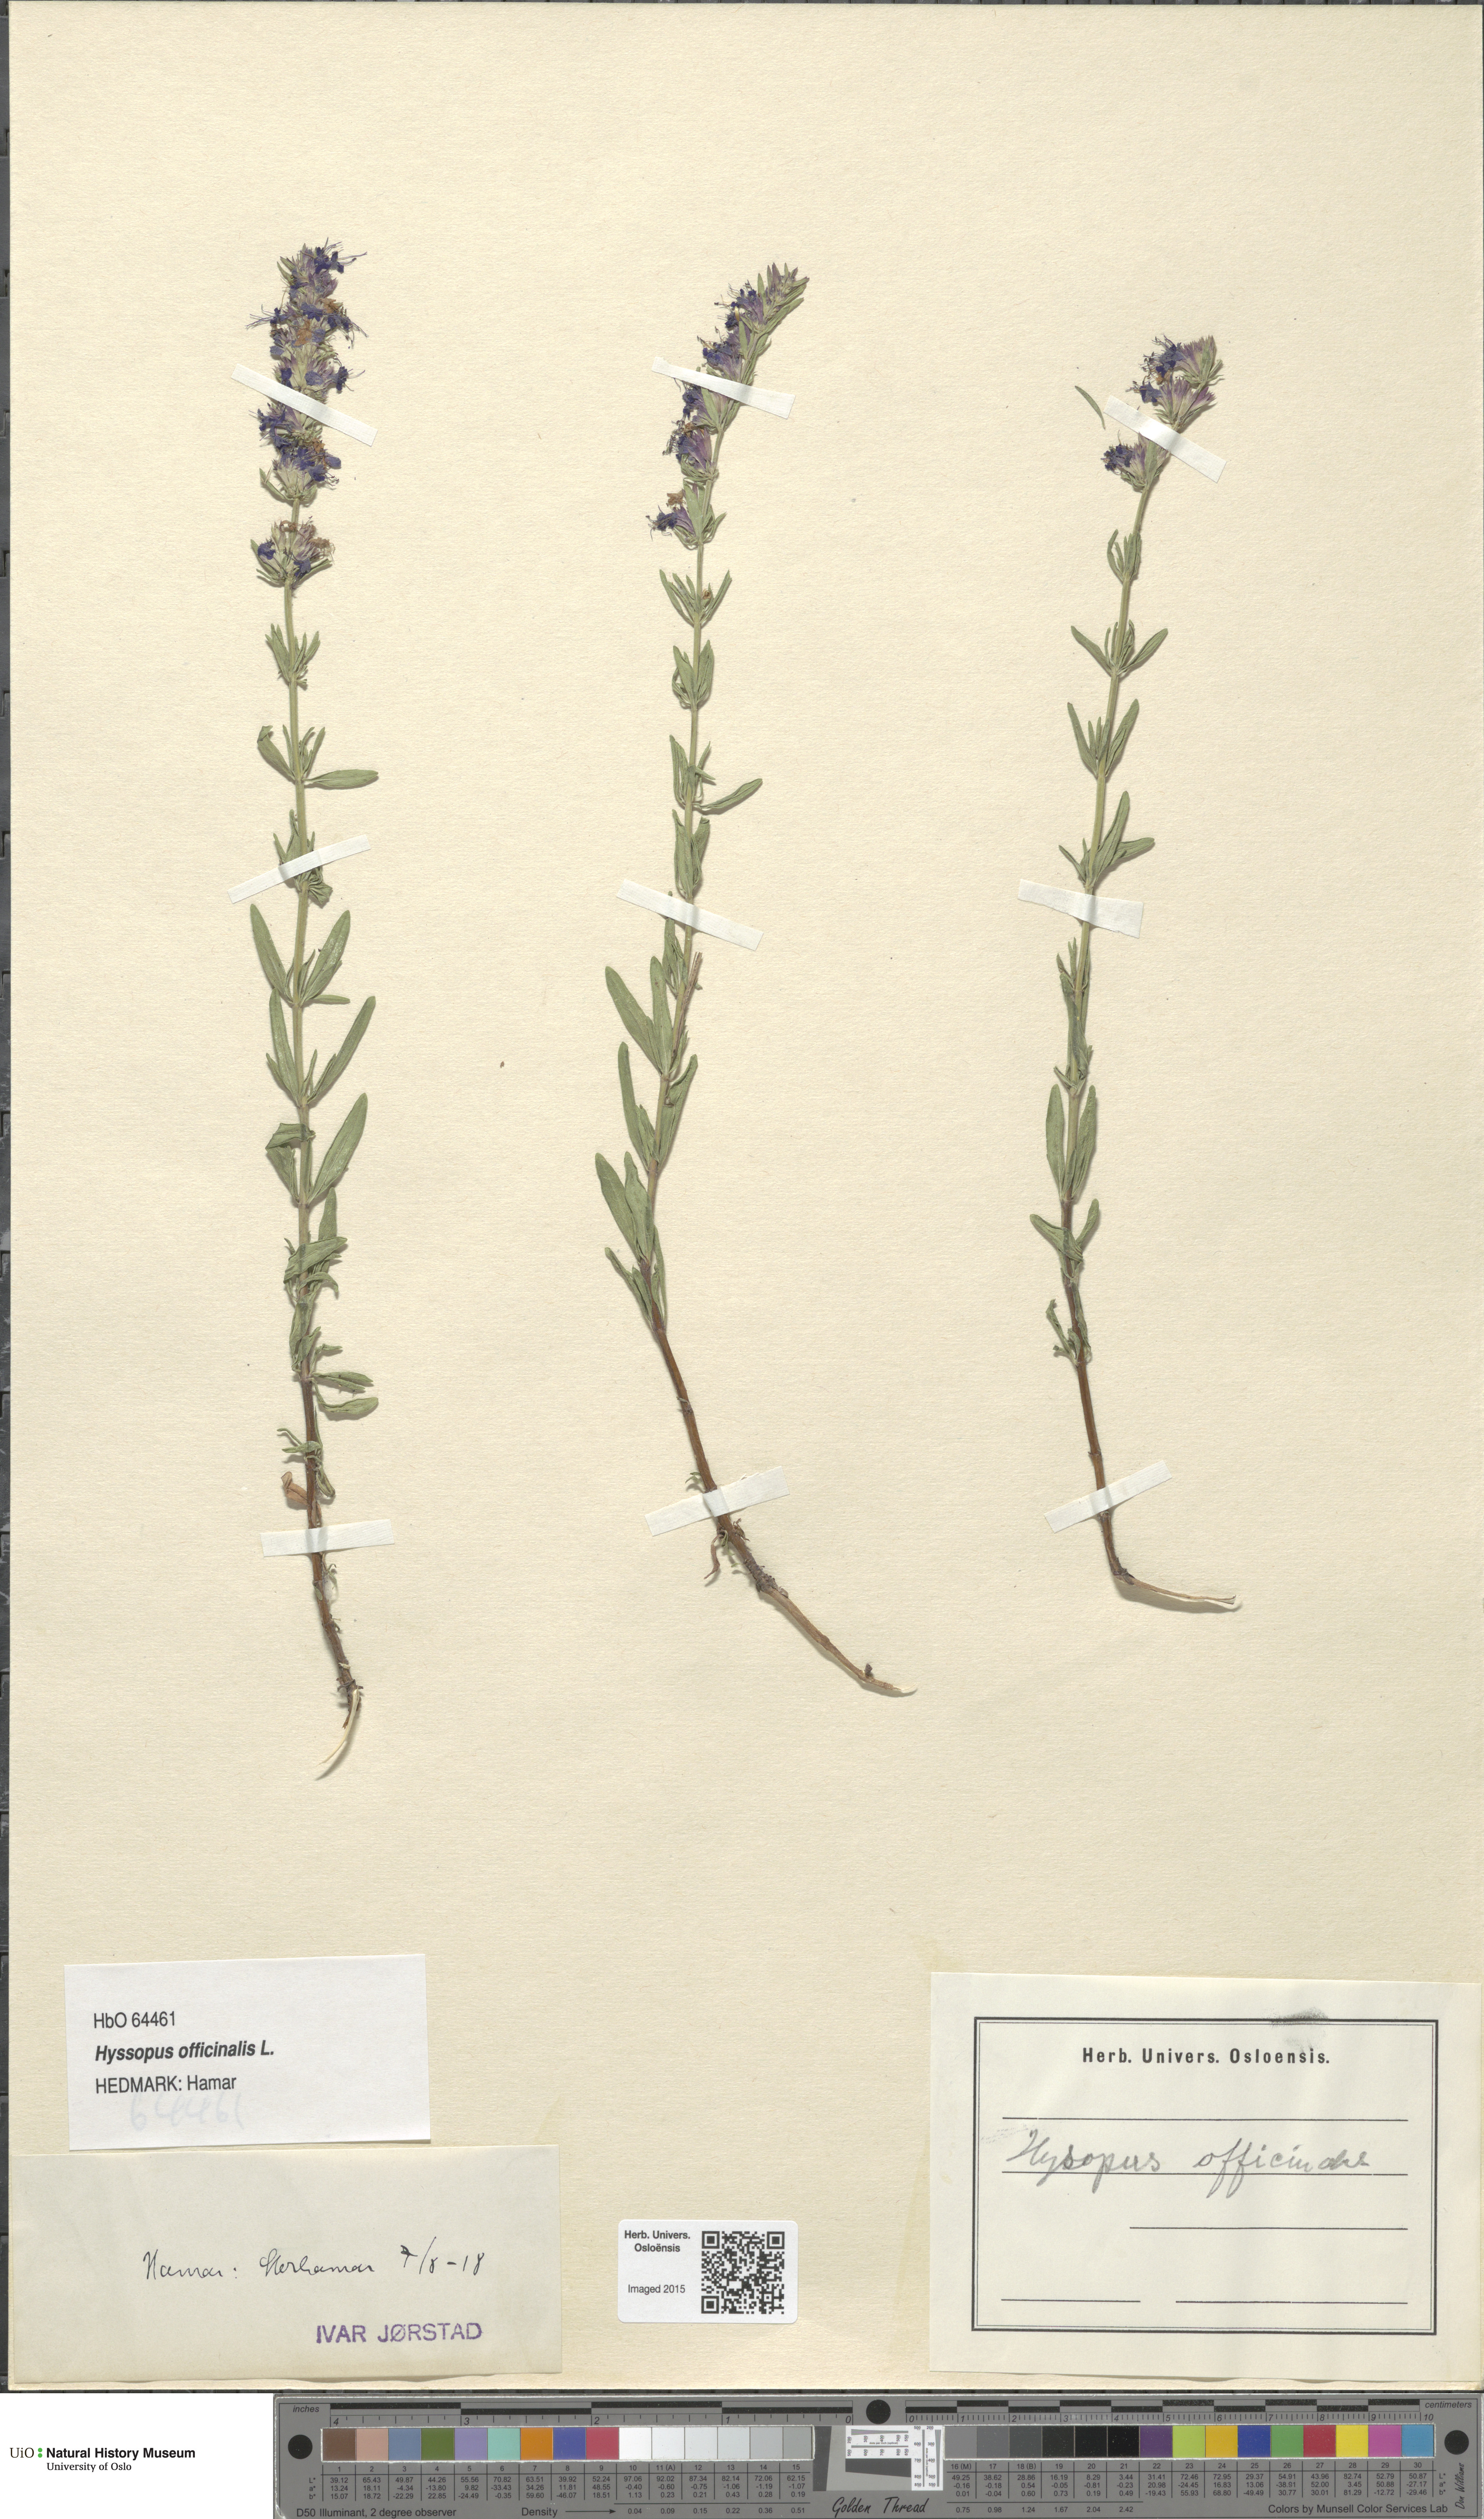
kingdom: Plantae
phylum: Tracheophyta
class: Magnoliopsida
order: Lamiales
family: Lamiaceae
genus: Hyssopus
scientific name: Hyssopus officinalis
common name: Hyssop
